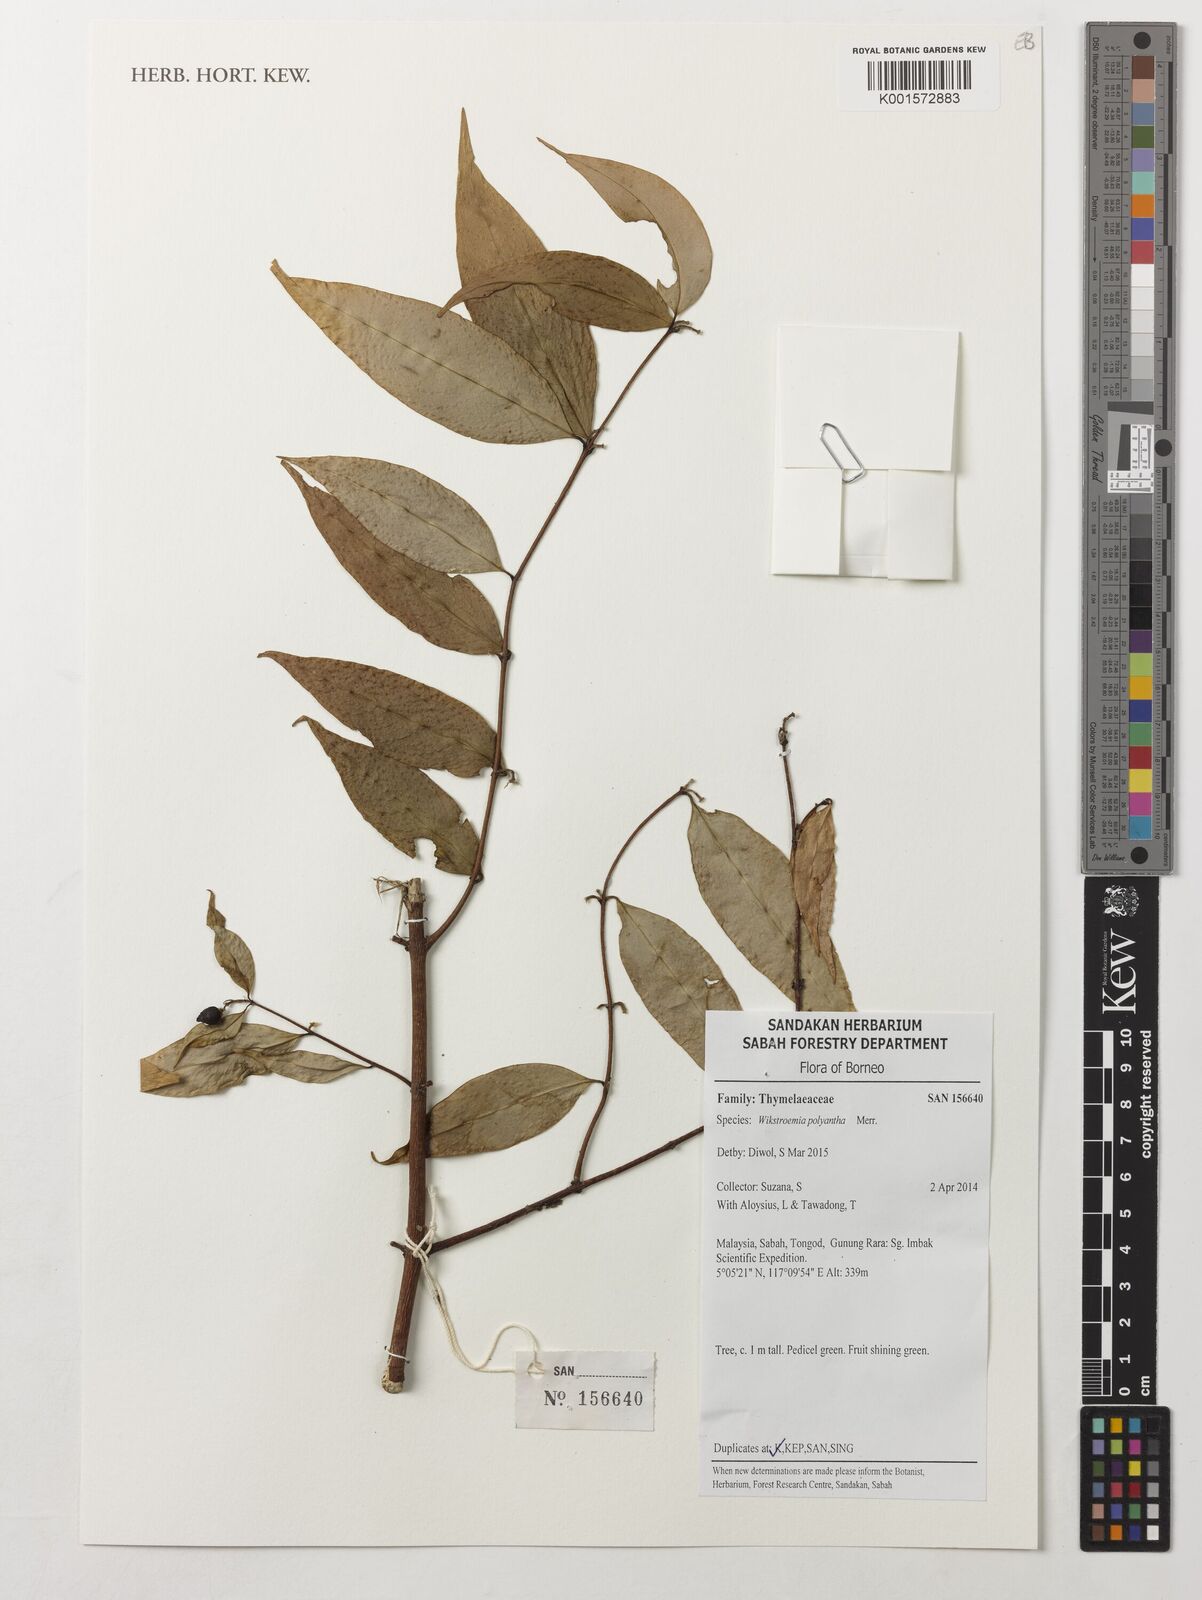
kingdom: Plantae
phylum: Tracheophyta
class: Magnoliopsida
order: Malvales
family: Thymelaeaceae
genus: Wikstroemia
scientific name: Wikstroemia polyantha
